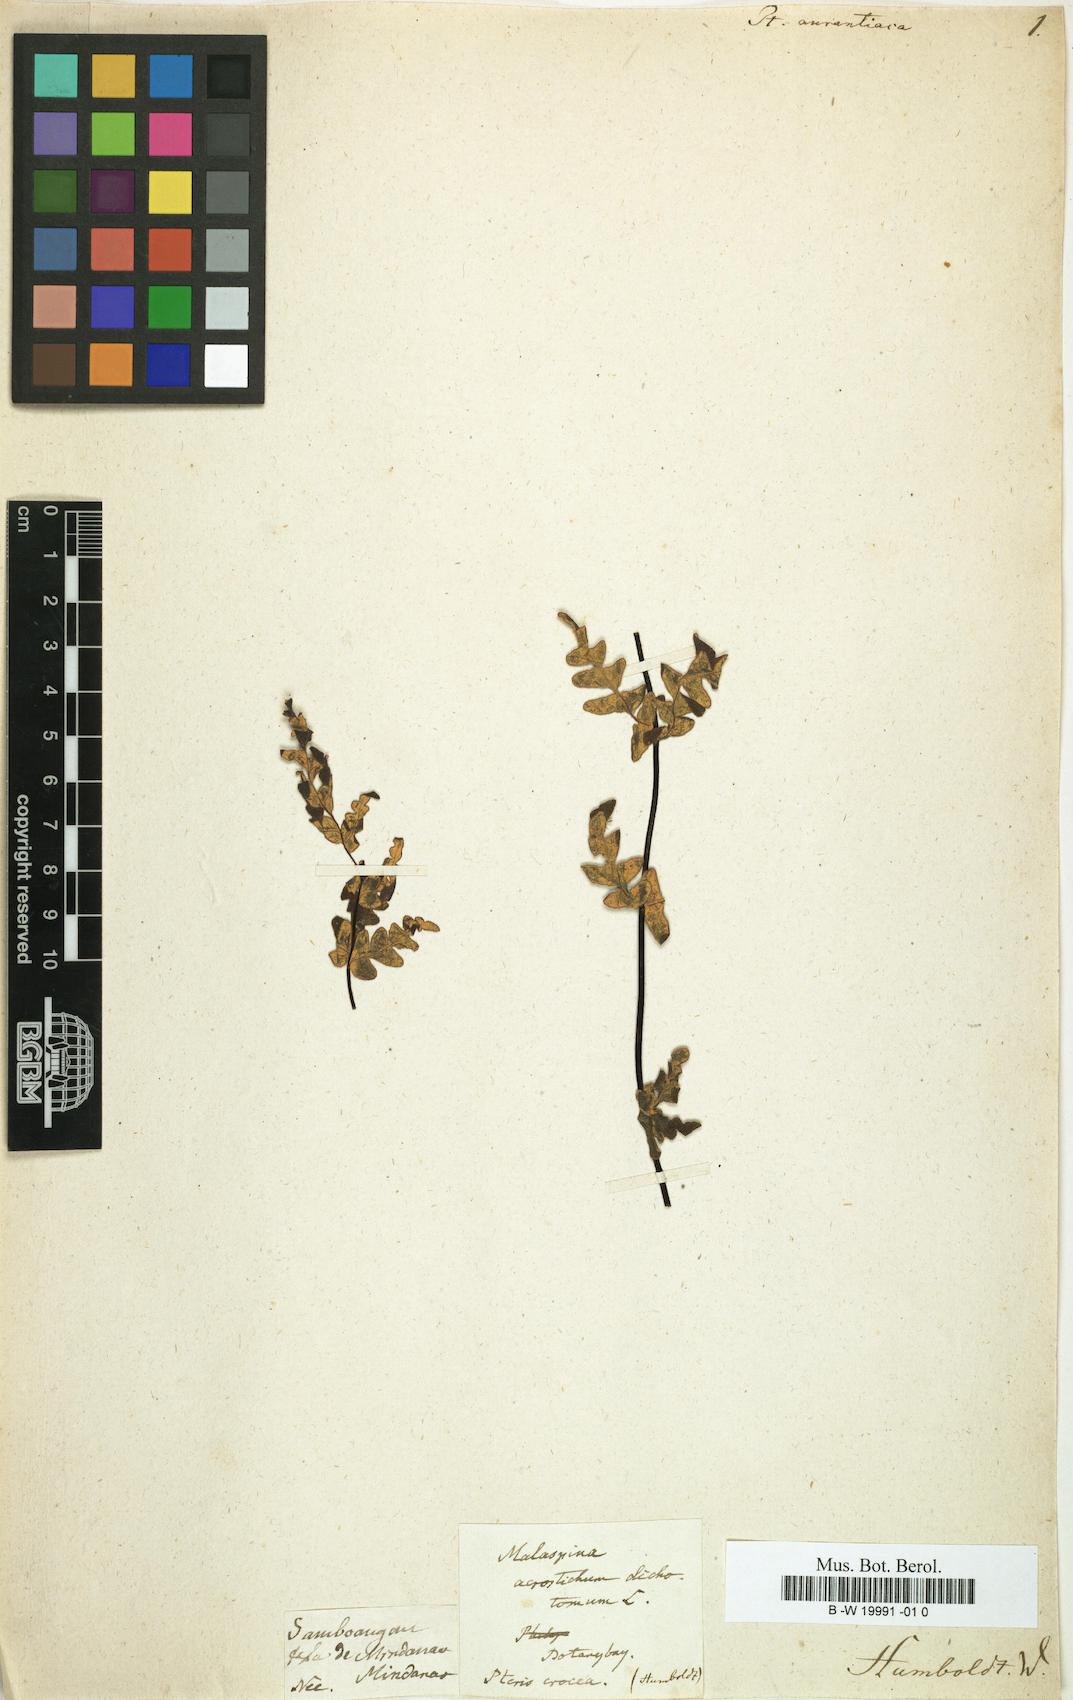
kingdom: Plantae
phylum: Tracheophyta
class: Polypodiopsida
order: Polypodiales
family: Pteridaceae
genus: Notholaena
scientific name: Notholaena ochracea
